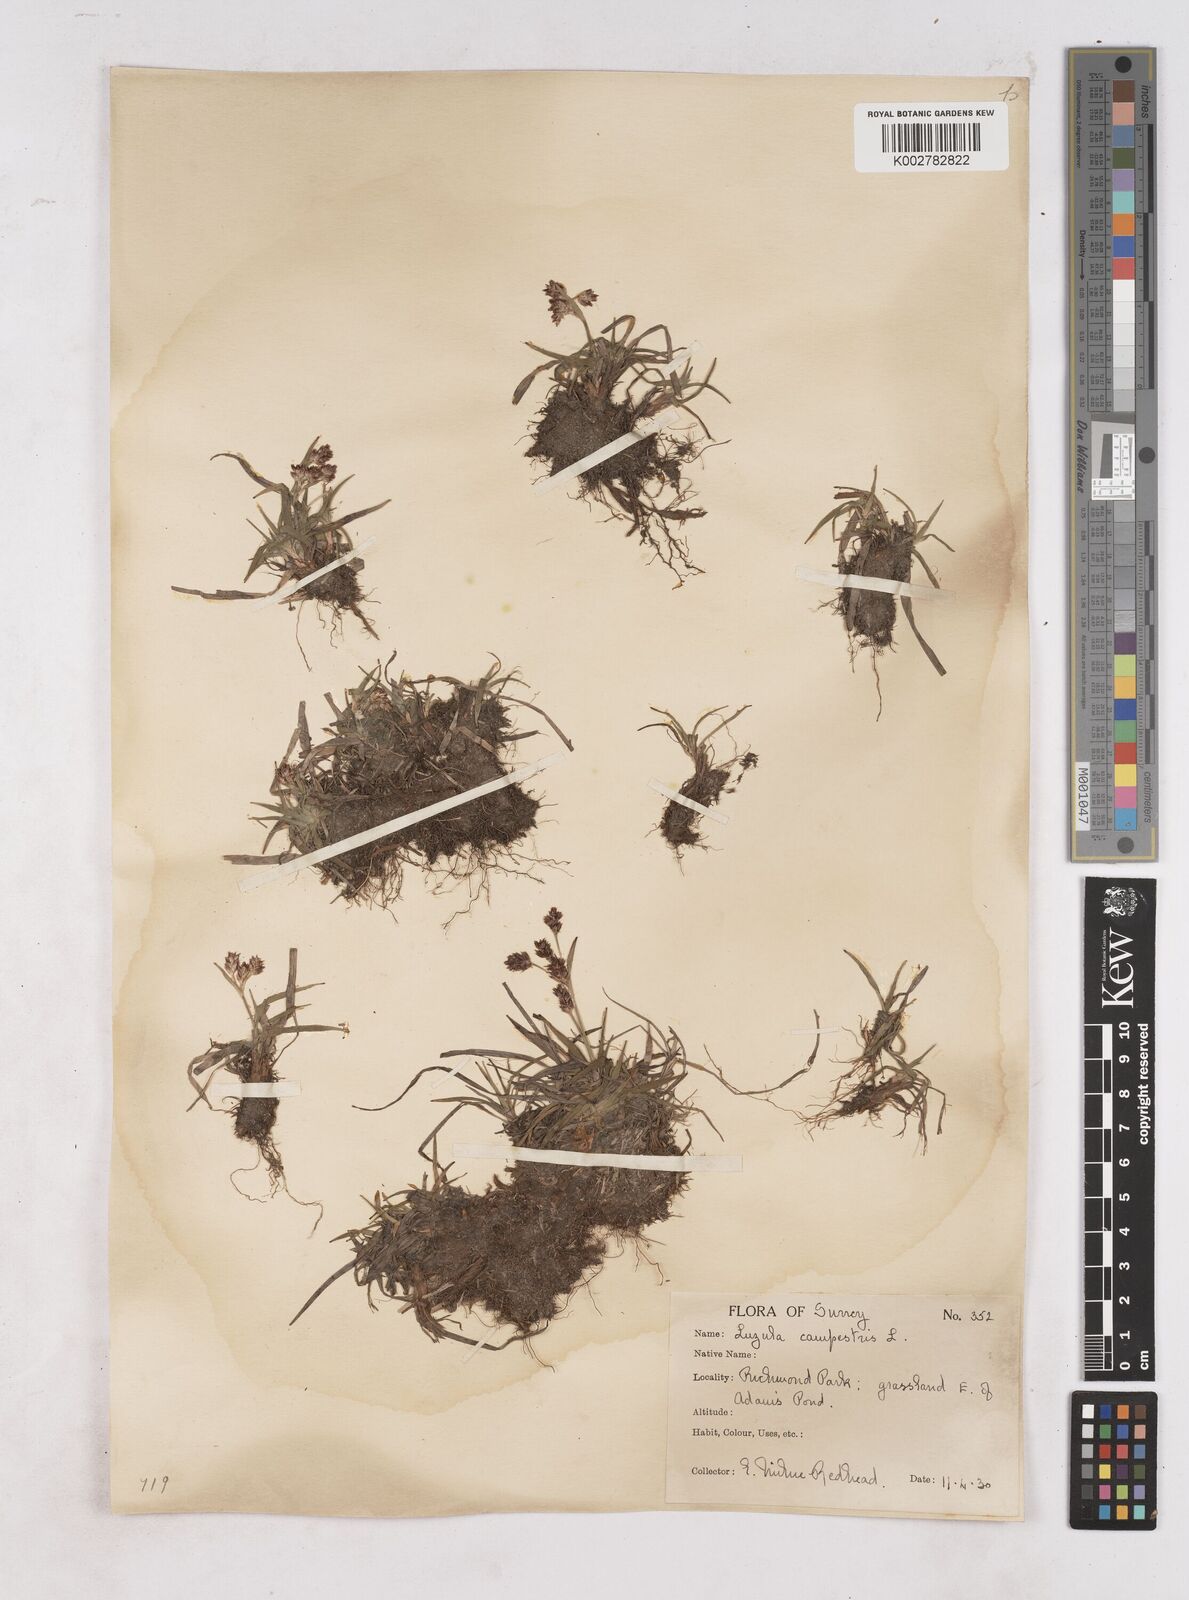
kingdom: Plantae
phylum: Tracheophyta
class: Liliopsida
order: Poales
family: Juncaceae
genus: Luzula
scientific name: Luzula campestris
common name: Field wood-rush
